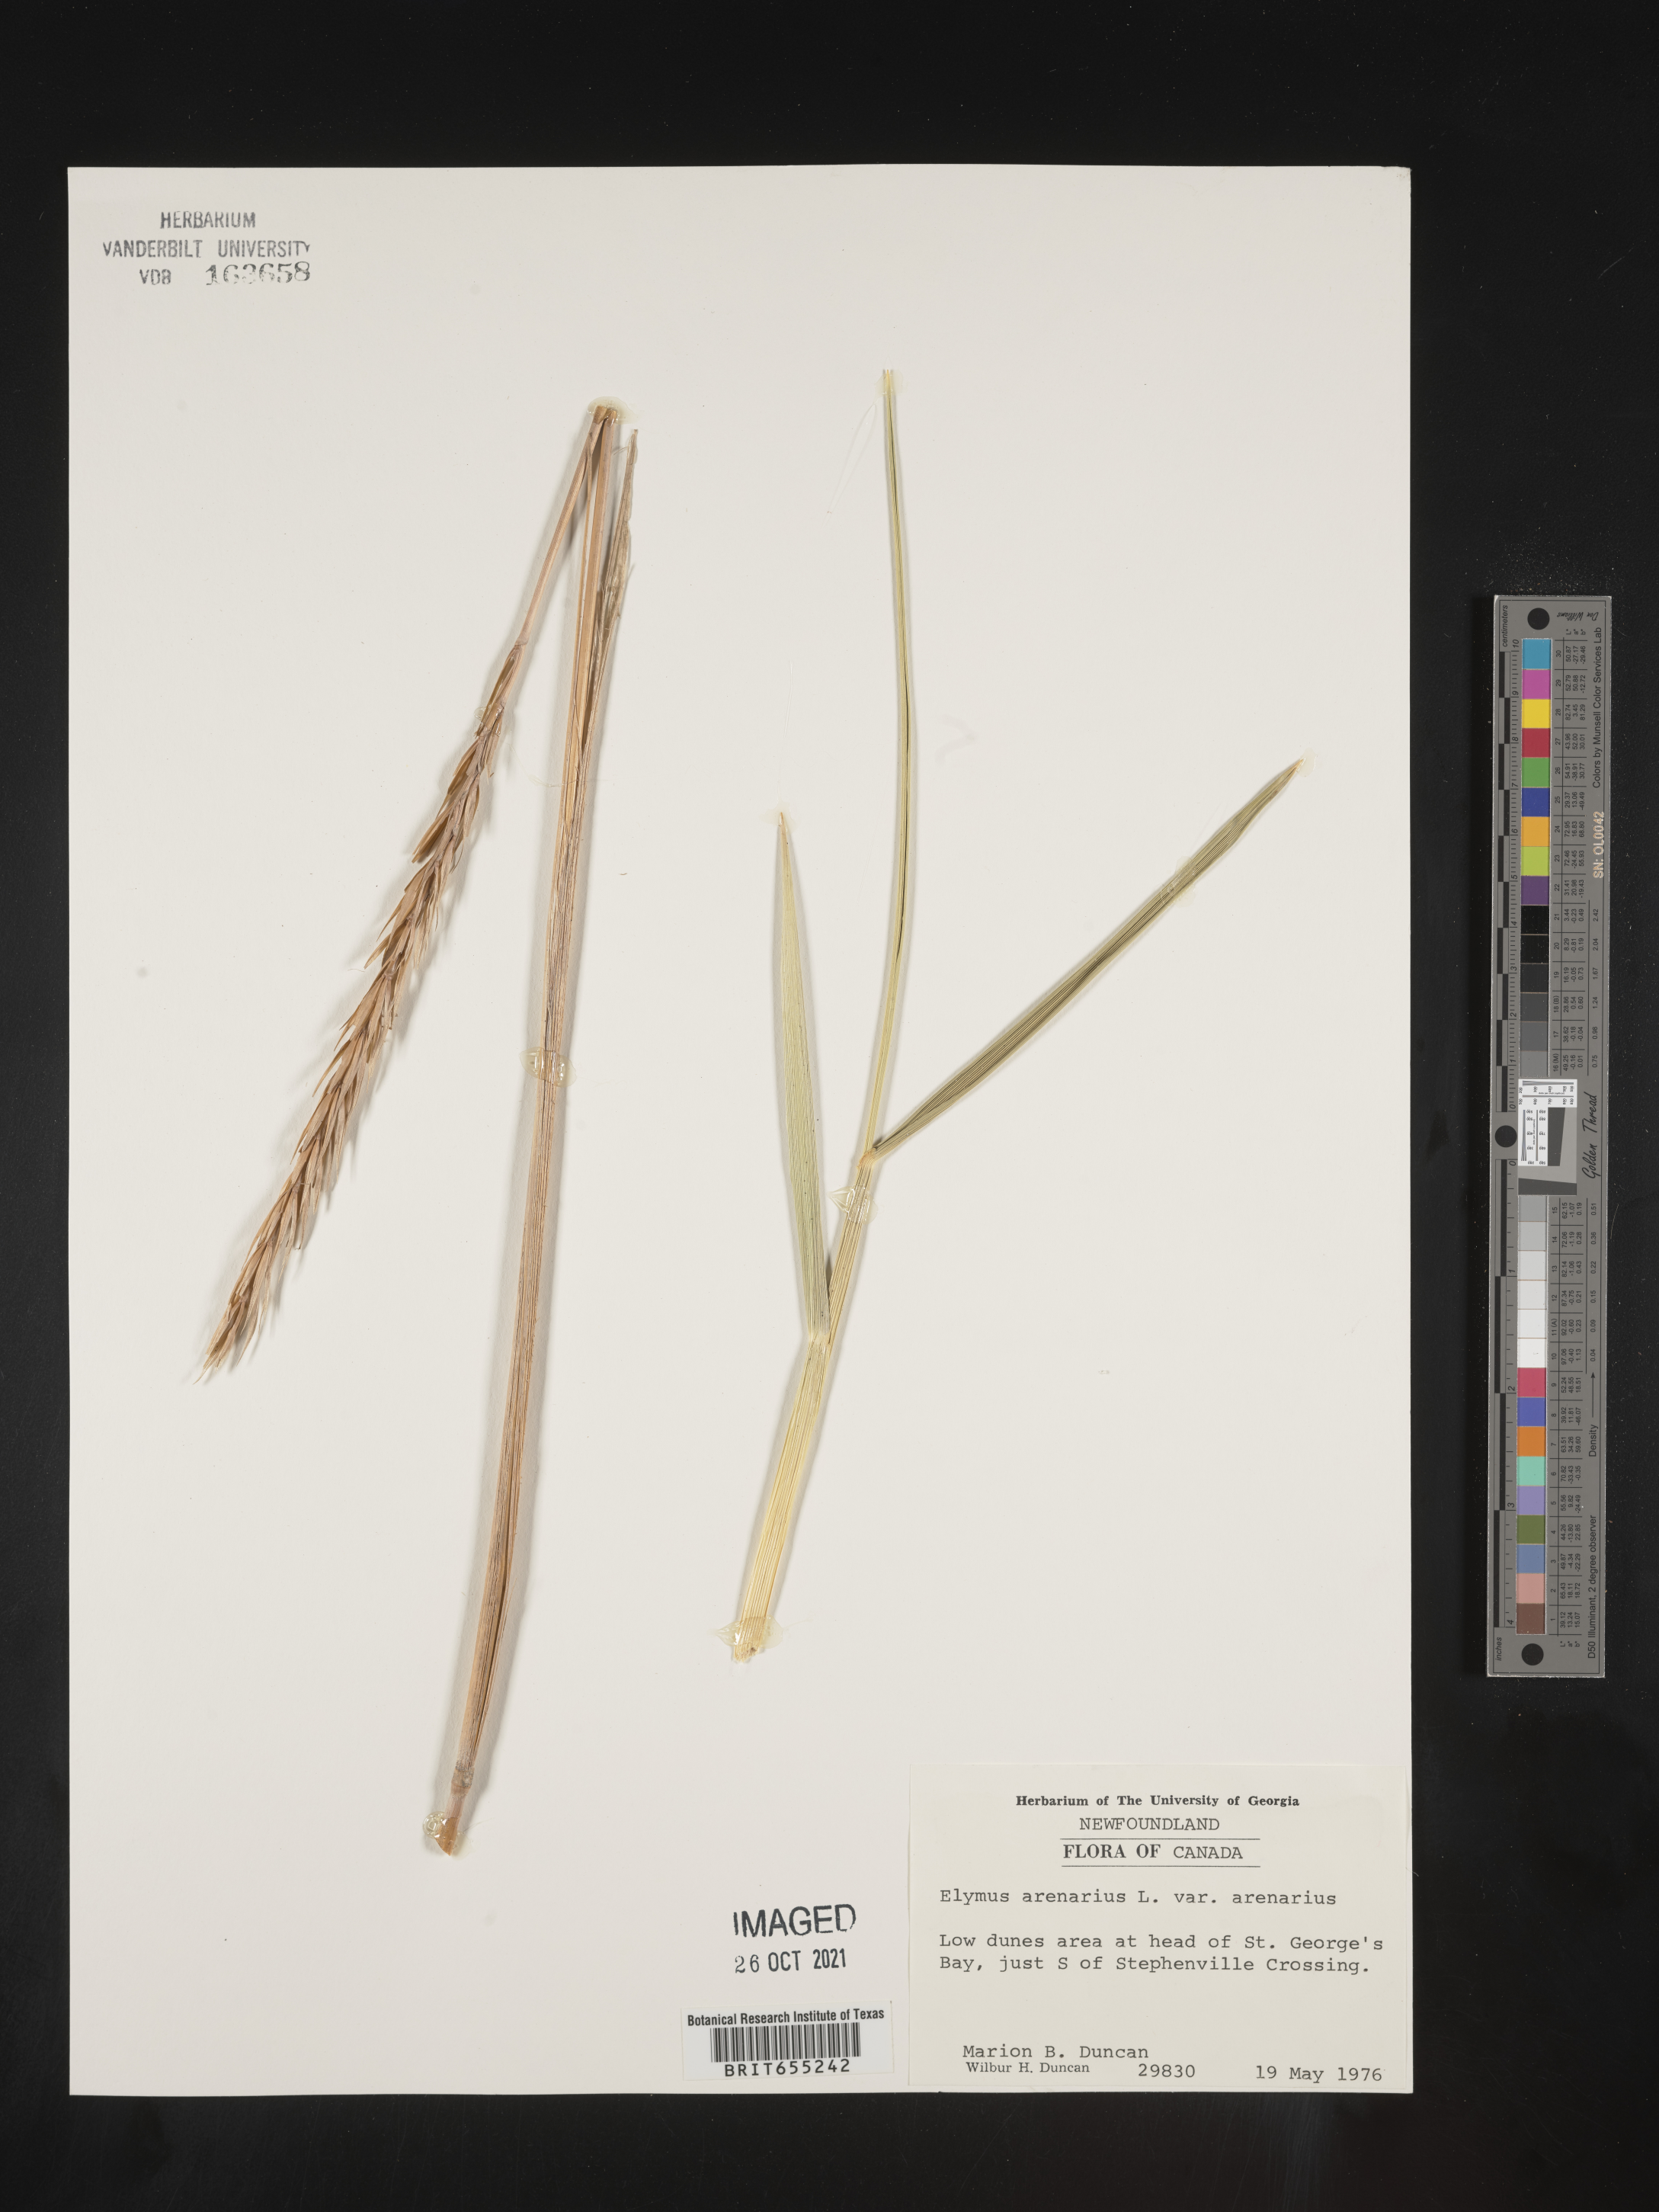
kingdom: Plantae
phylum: Tracheophyta
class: Liliopsida
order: Poales
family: Poaceae
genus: Elymus
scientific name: Elymus
